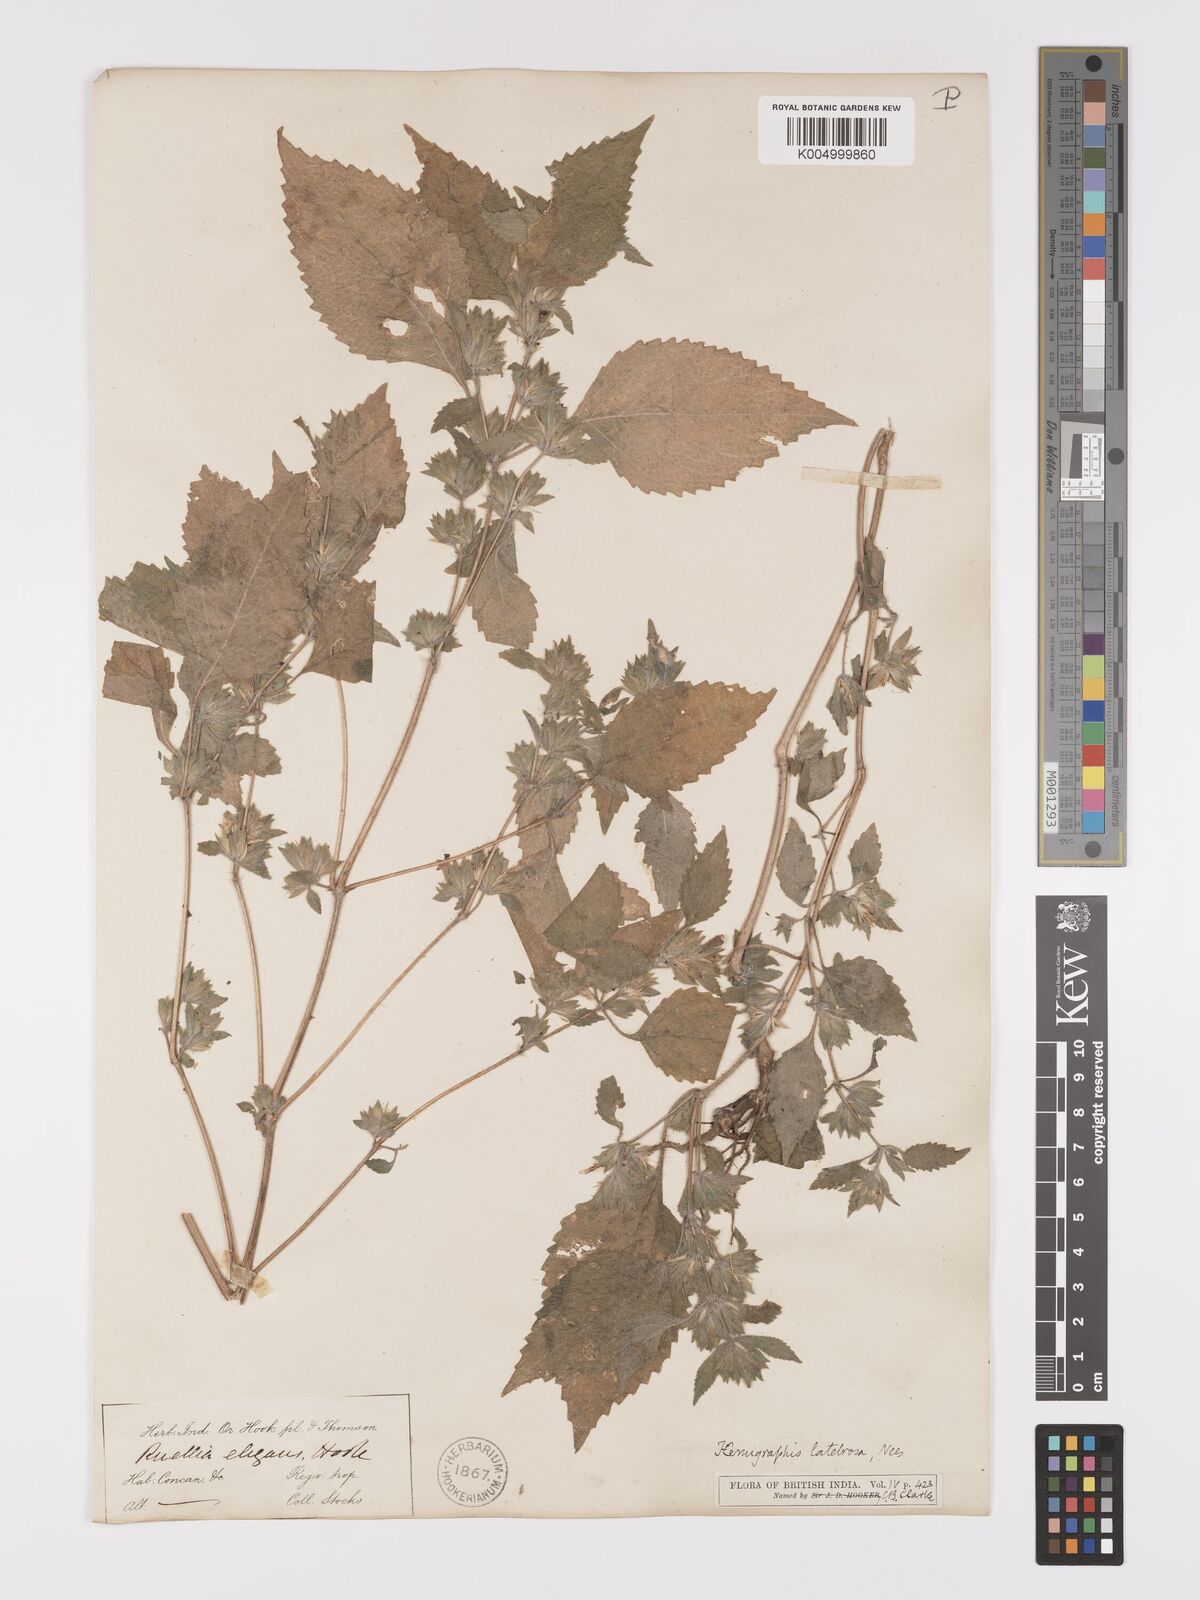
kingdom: Plantae
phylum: Tracheophyta
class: Magnoliopsida
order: Lamiales
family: Acanthaceae
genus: Strobilanthes
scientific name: Strobilanthes pavala
